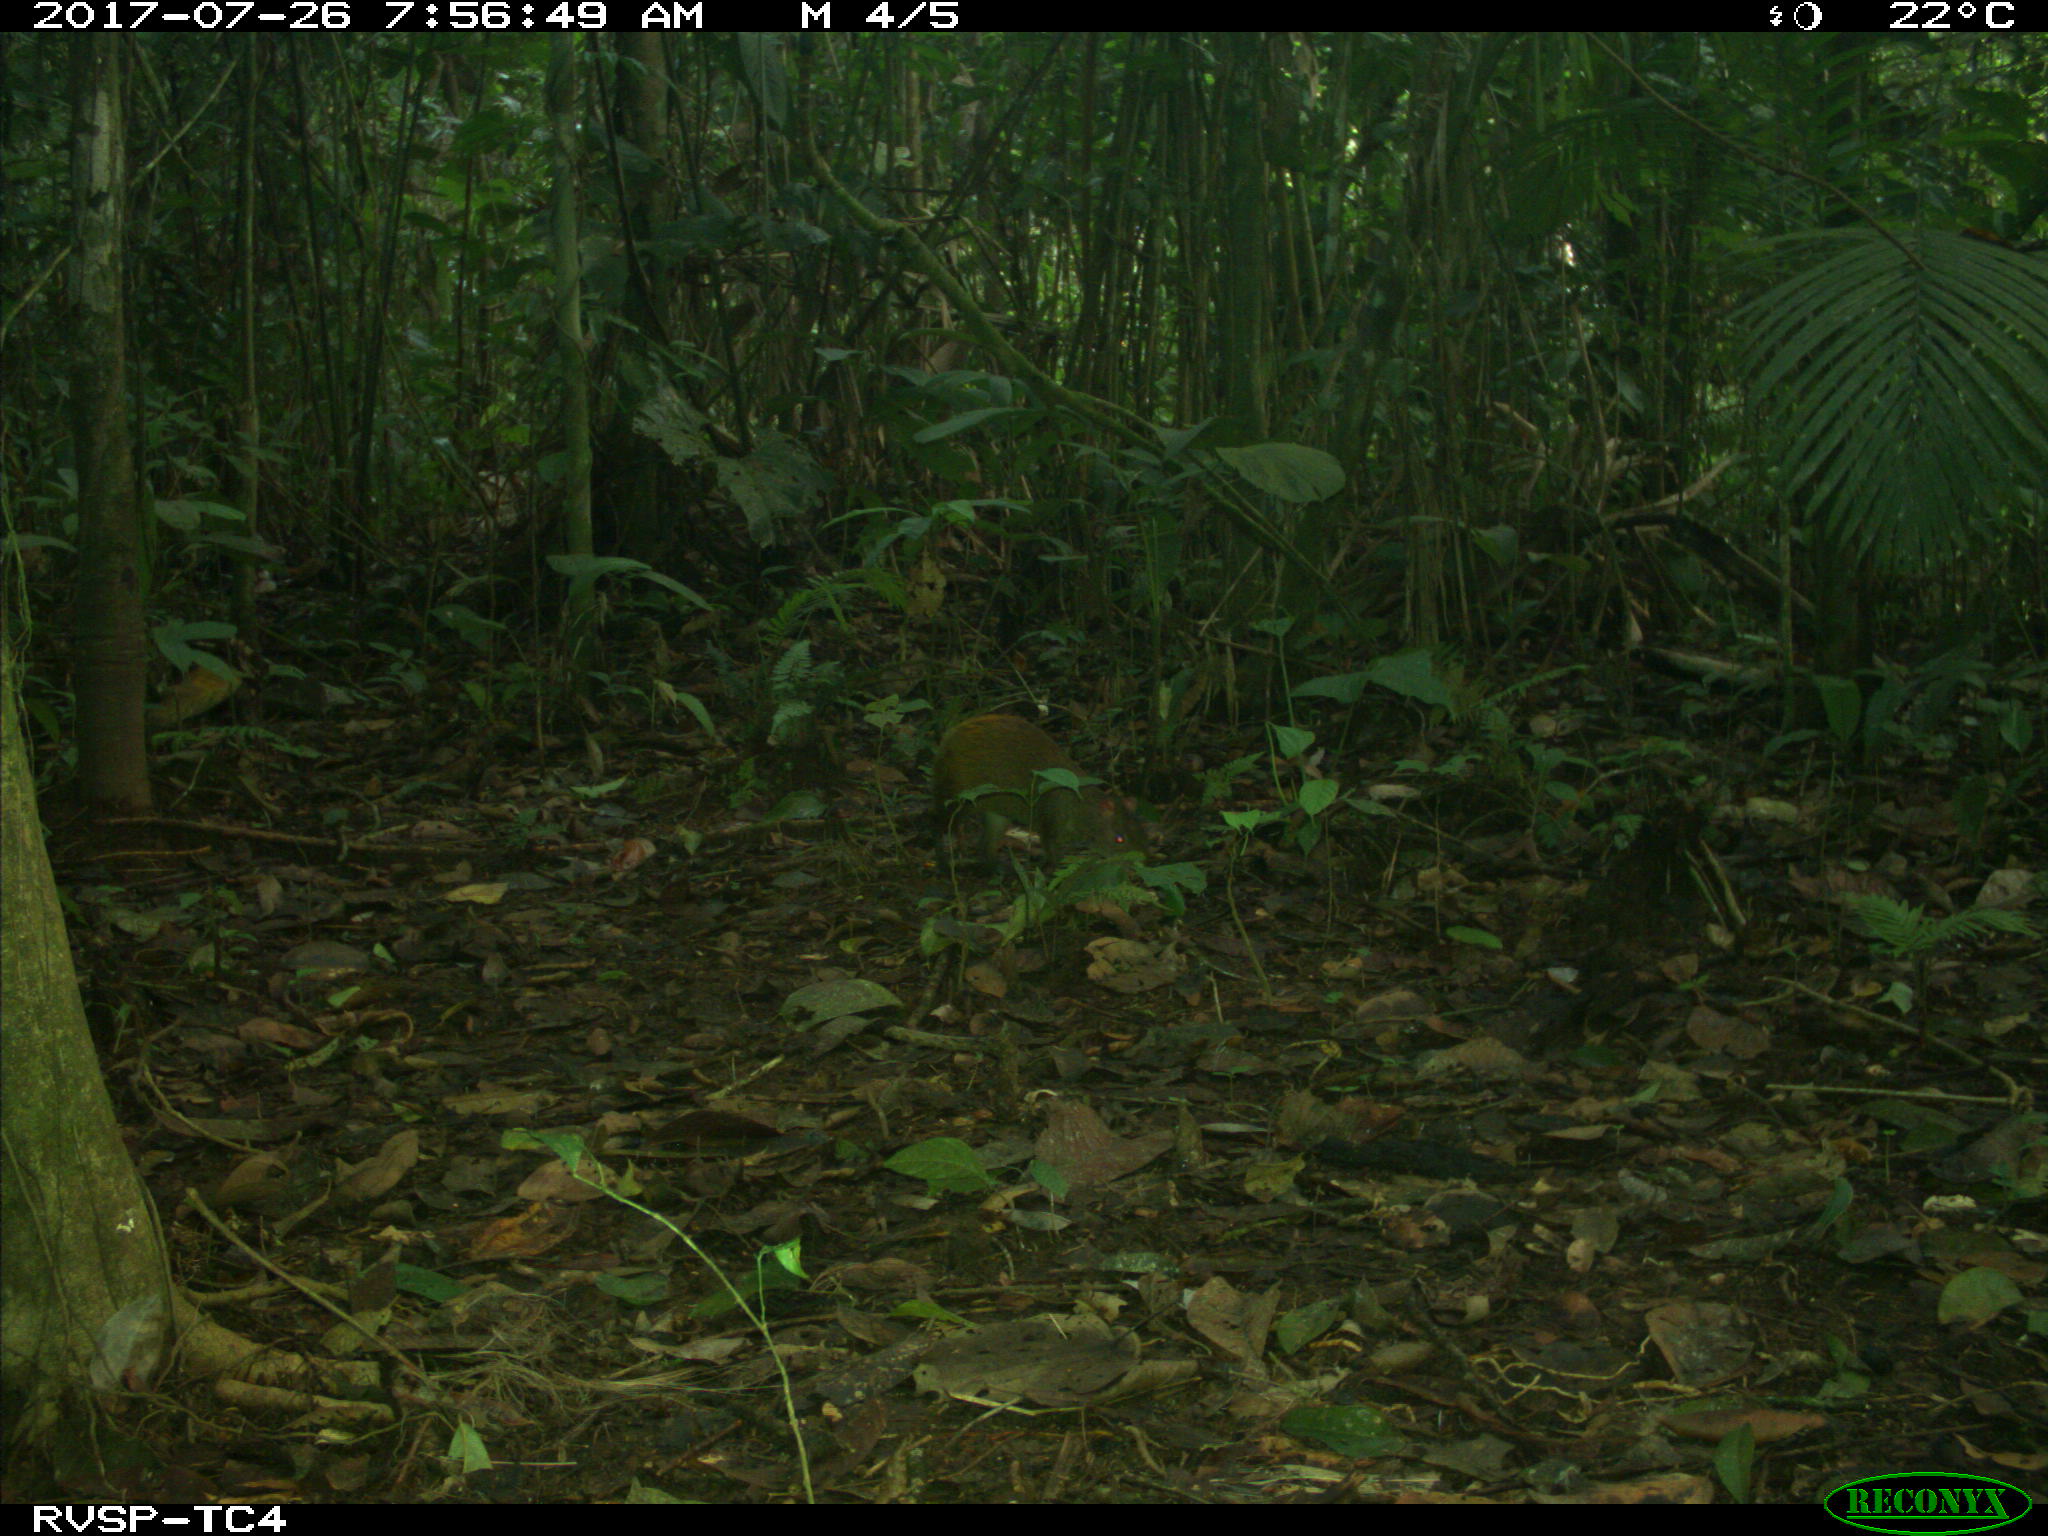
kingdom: Animalia
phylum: Chordata
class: Mammalia
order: Rodentia
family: Dasyproctidae
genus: Dasyprocta
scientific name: Dasyprocta punctata
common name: Central american agouti
